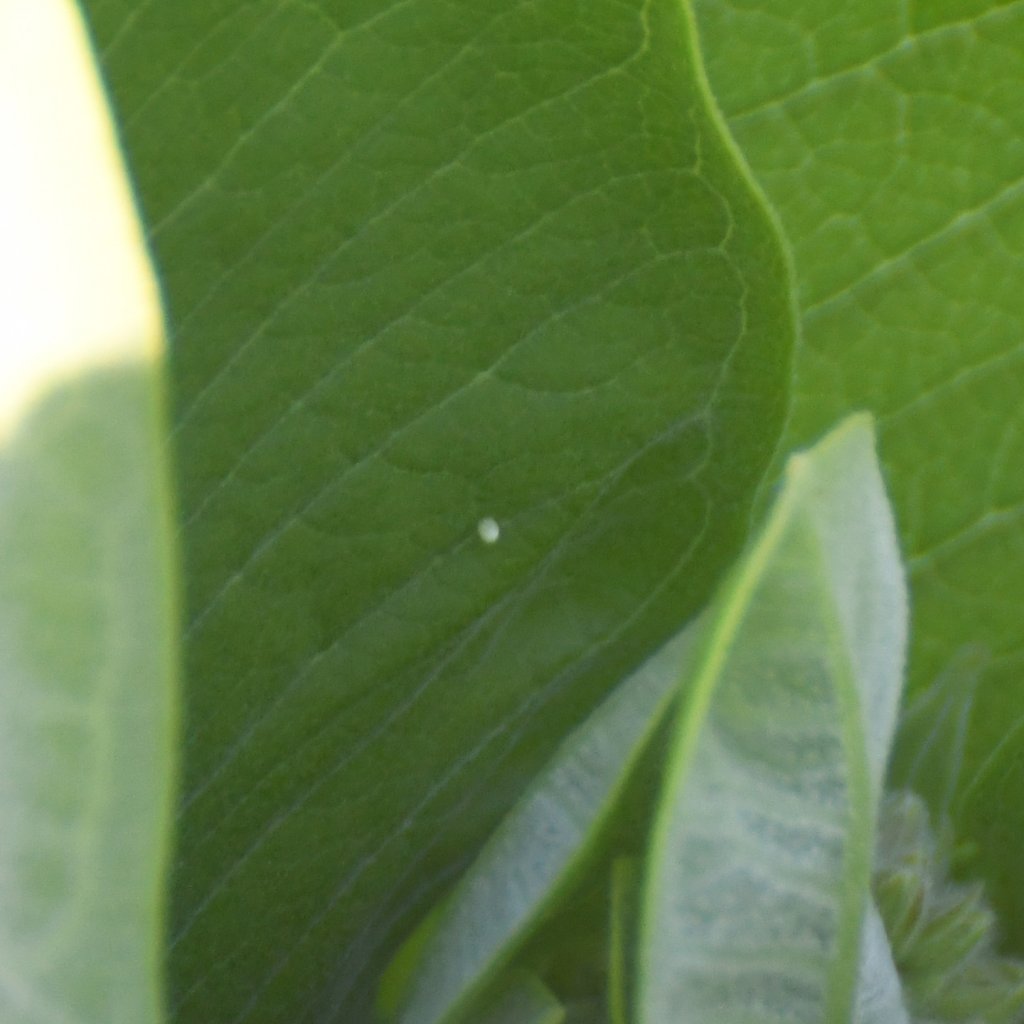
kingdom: Animalia
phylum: Arthropoda
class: Insecta
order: Lepidoptera
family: Nymphalidae
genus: Danaus
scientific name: Danaus plexippus
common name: Monarch
